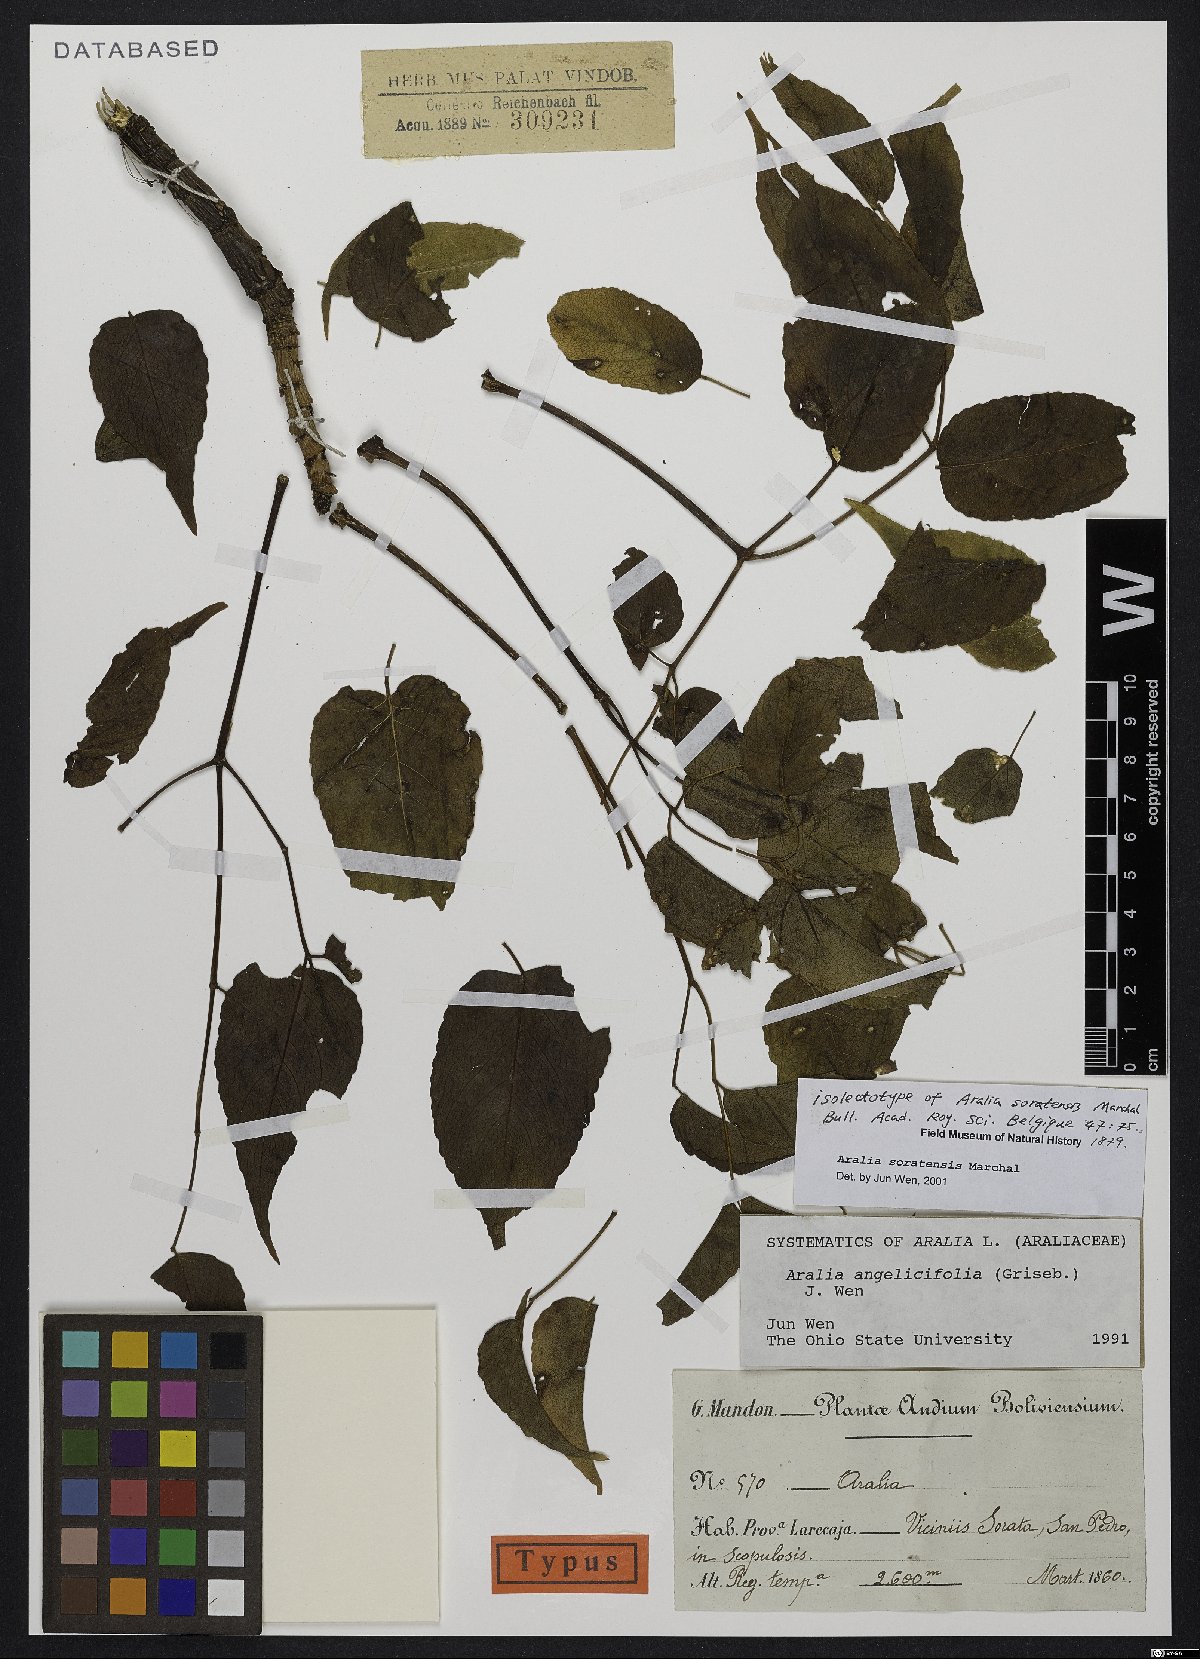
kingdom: Plantae
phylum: Tracheophyta
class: Magnoliopsida
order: Apiales
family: Araliaceae
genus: Aralia
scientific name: Aralia soratensis
